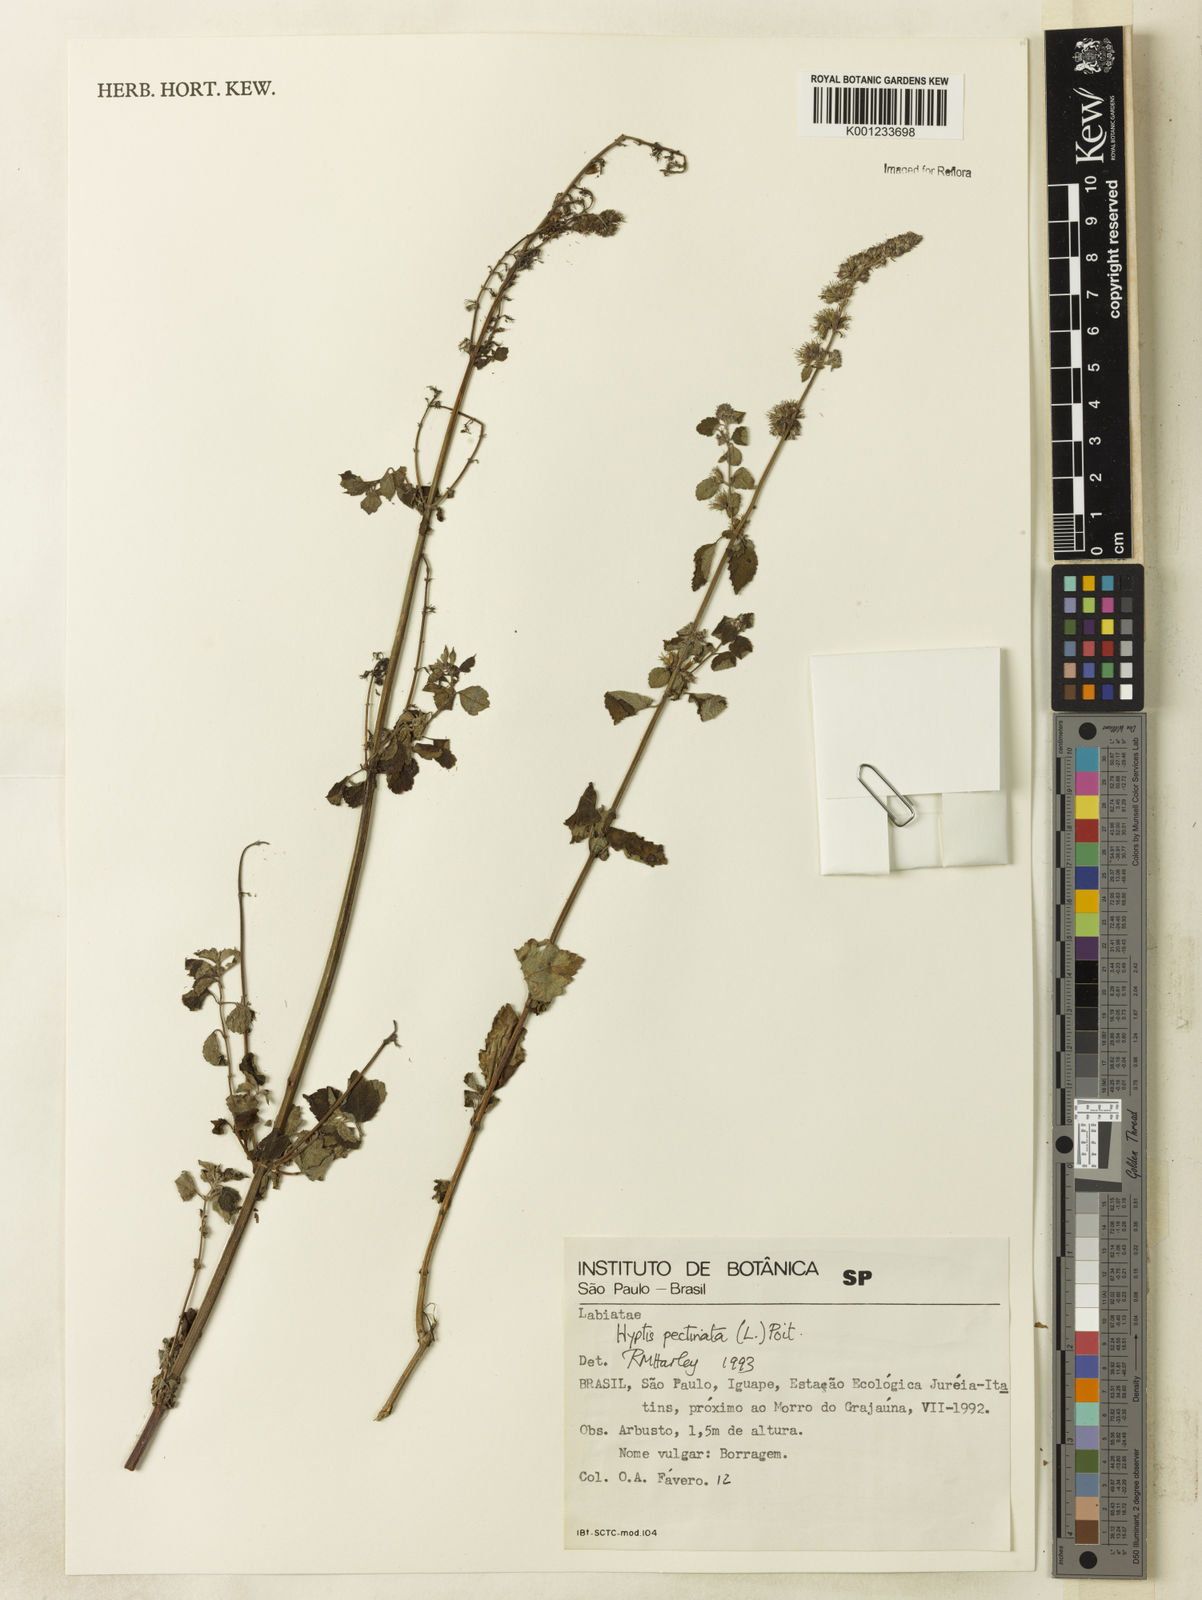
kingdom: Plantae
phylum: Tracheophyta
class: Magnoliopsida
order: Lamiales
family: Lamiaceae
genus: Mesosphaerum
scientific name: Mesosphaerum pectinatum
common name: Comb hyptis
